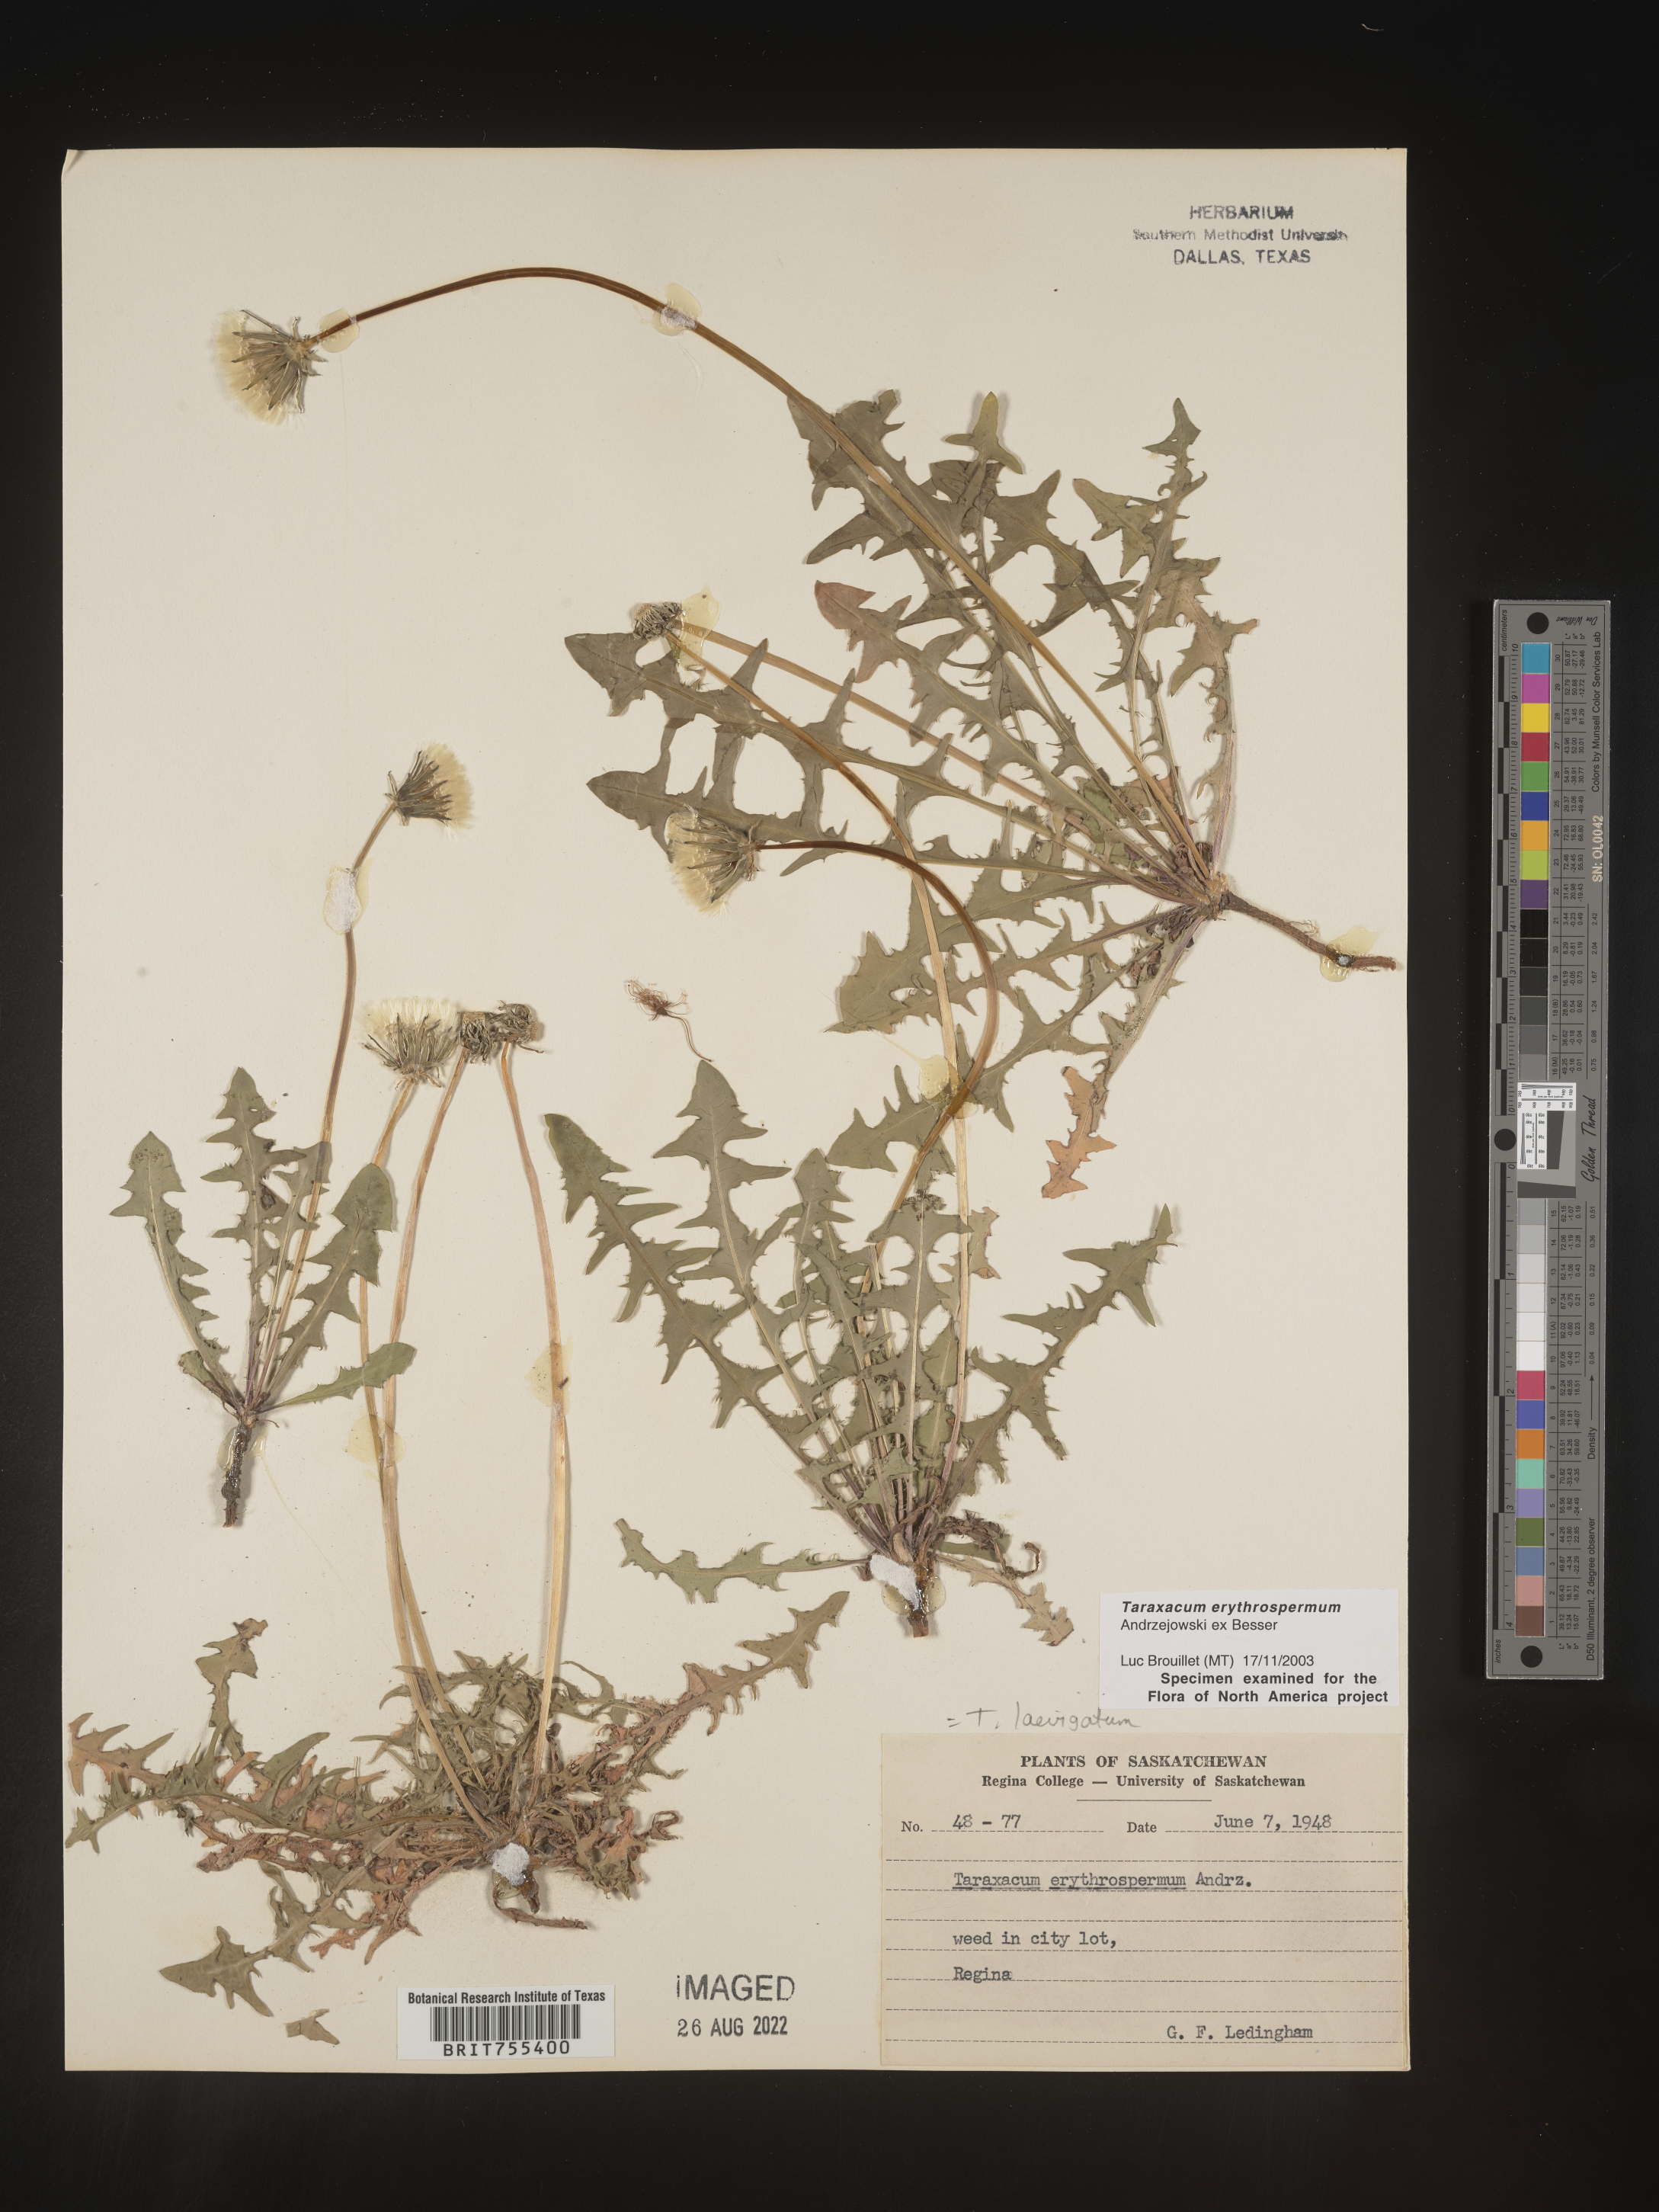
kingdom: Plantae
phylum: Tracheophyta
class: Magnoliopsida
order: Asterales
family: Asteraceae
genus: Taraxacum
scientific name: Taraxacum erythrospermum
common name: Rock dandelion
